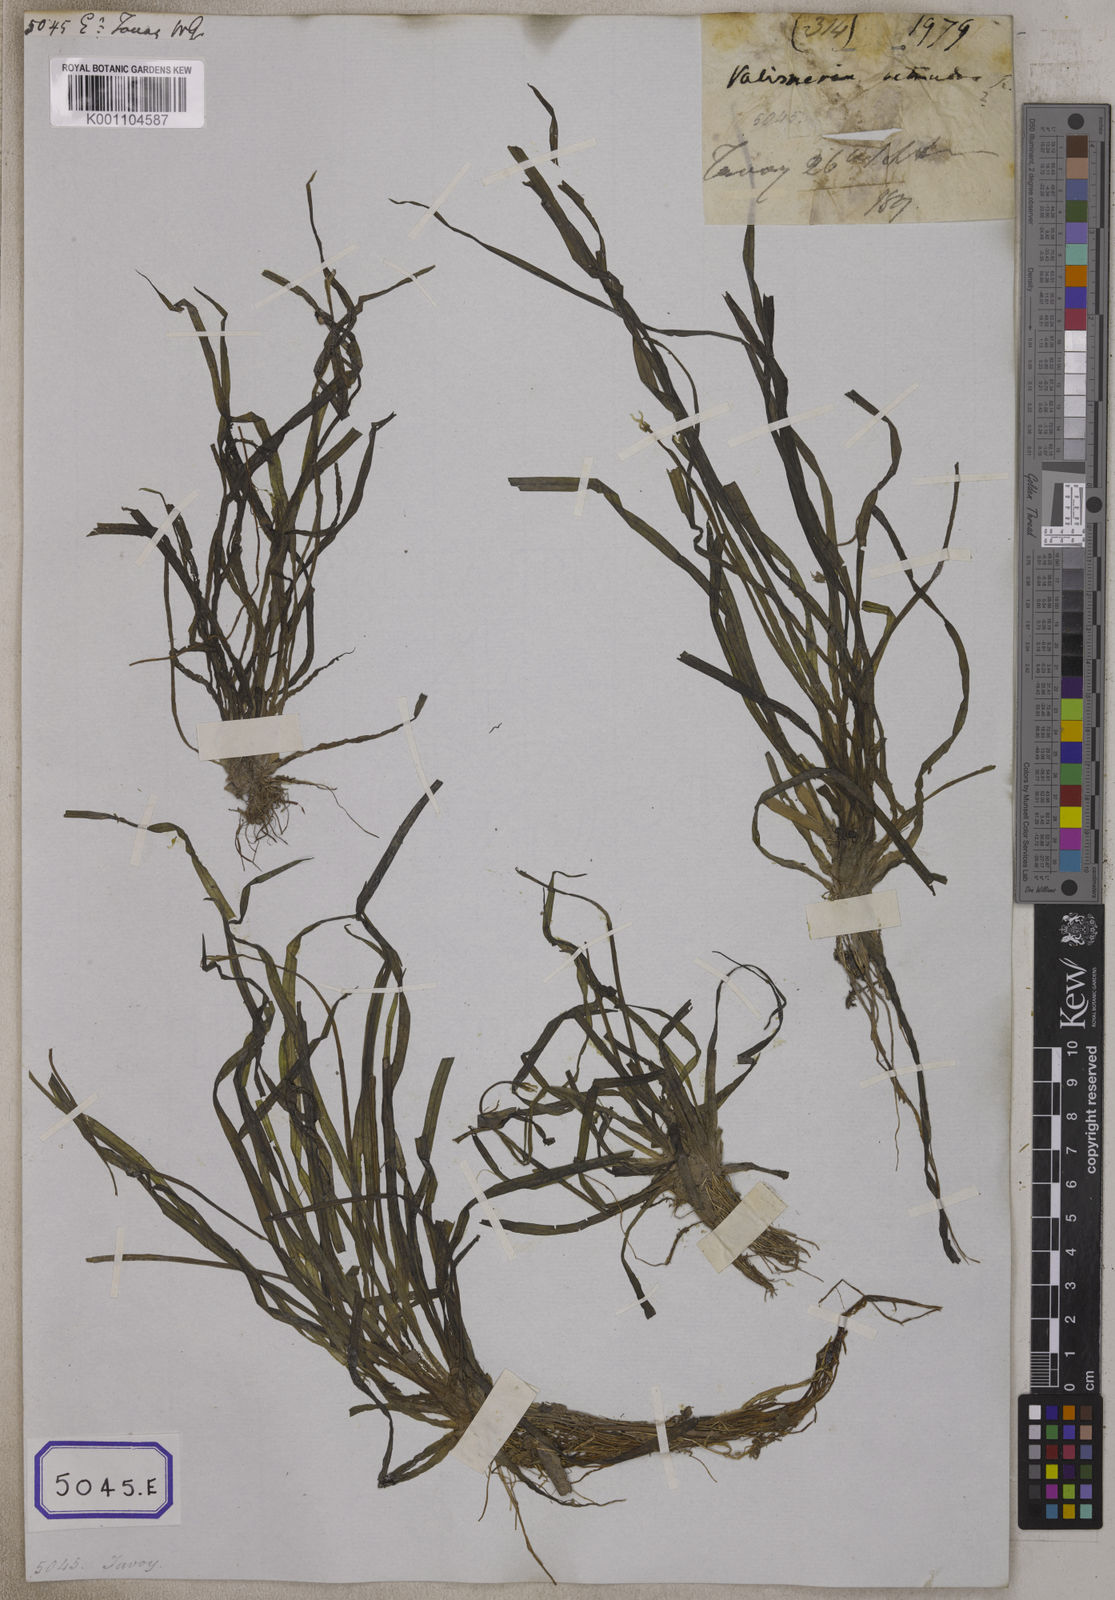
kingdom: Plantae
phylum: Tracheophyta
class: Liliopsida
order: Alismatales
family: Hydrocharitaceae
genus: Vallisneria
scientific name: Vallisneria spiralis
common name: Tapegrass
